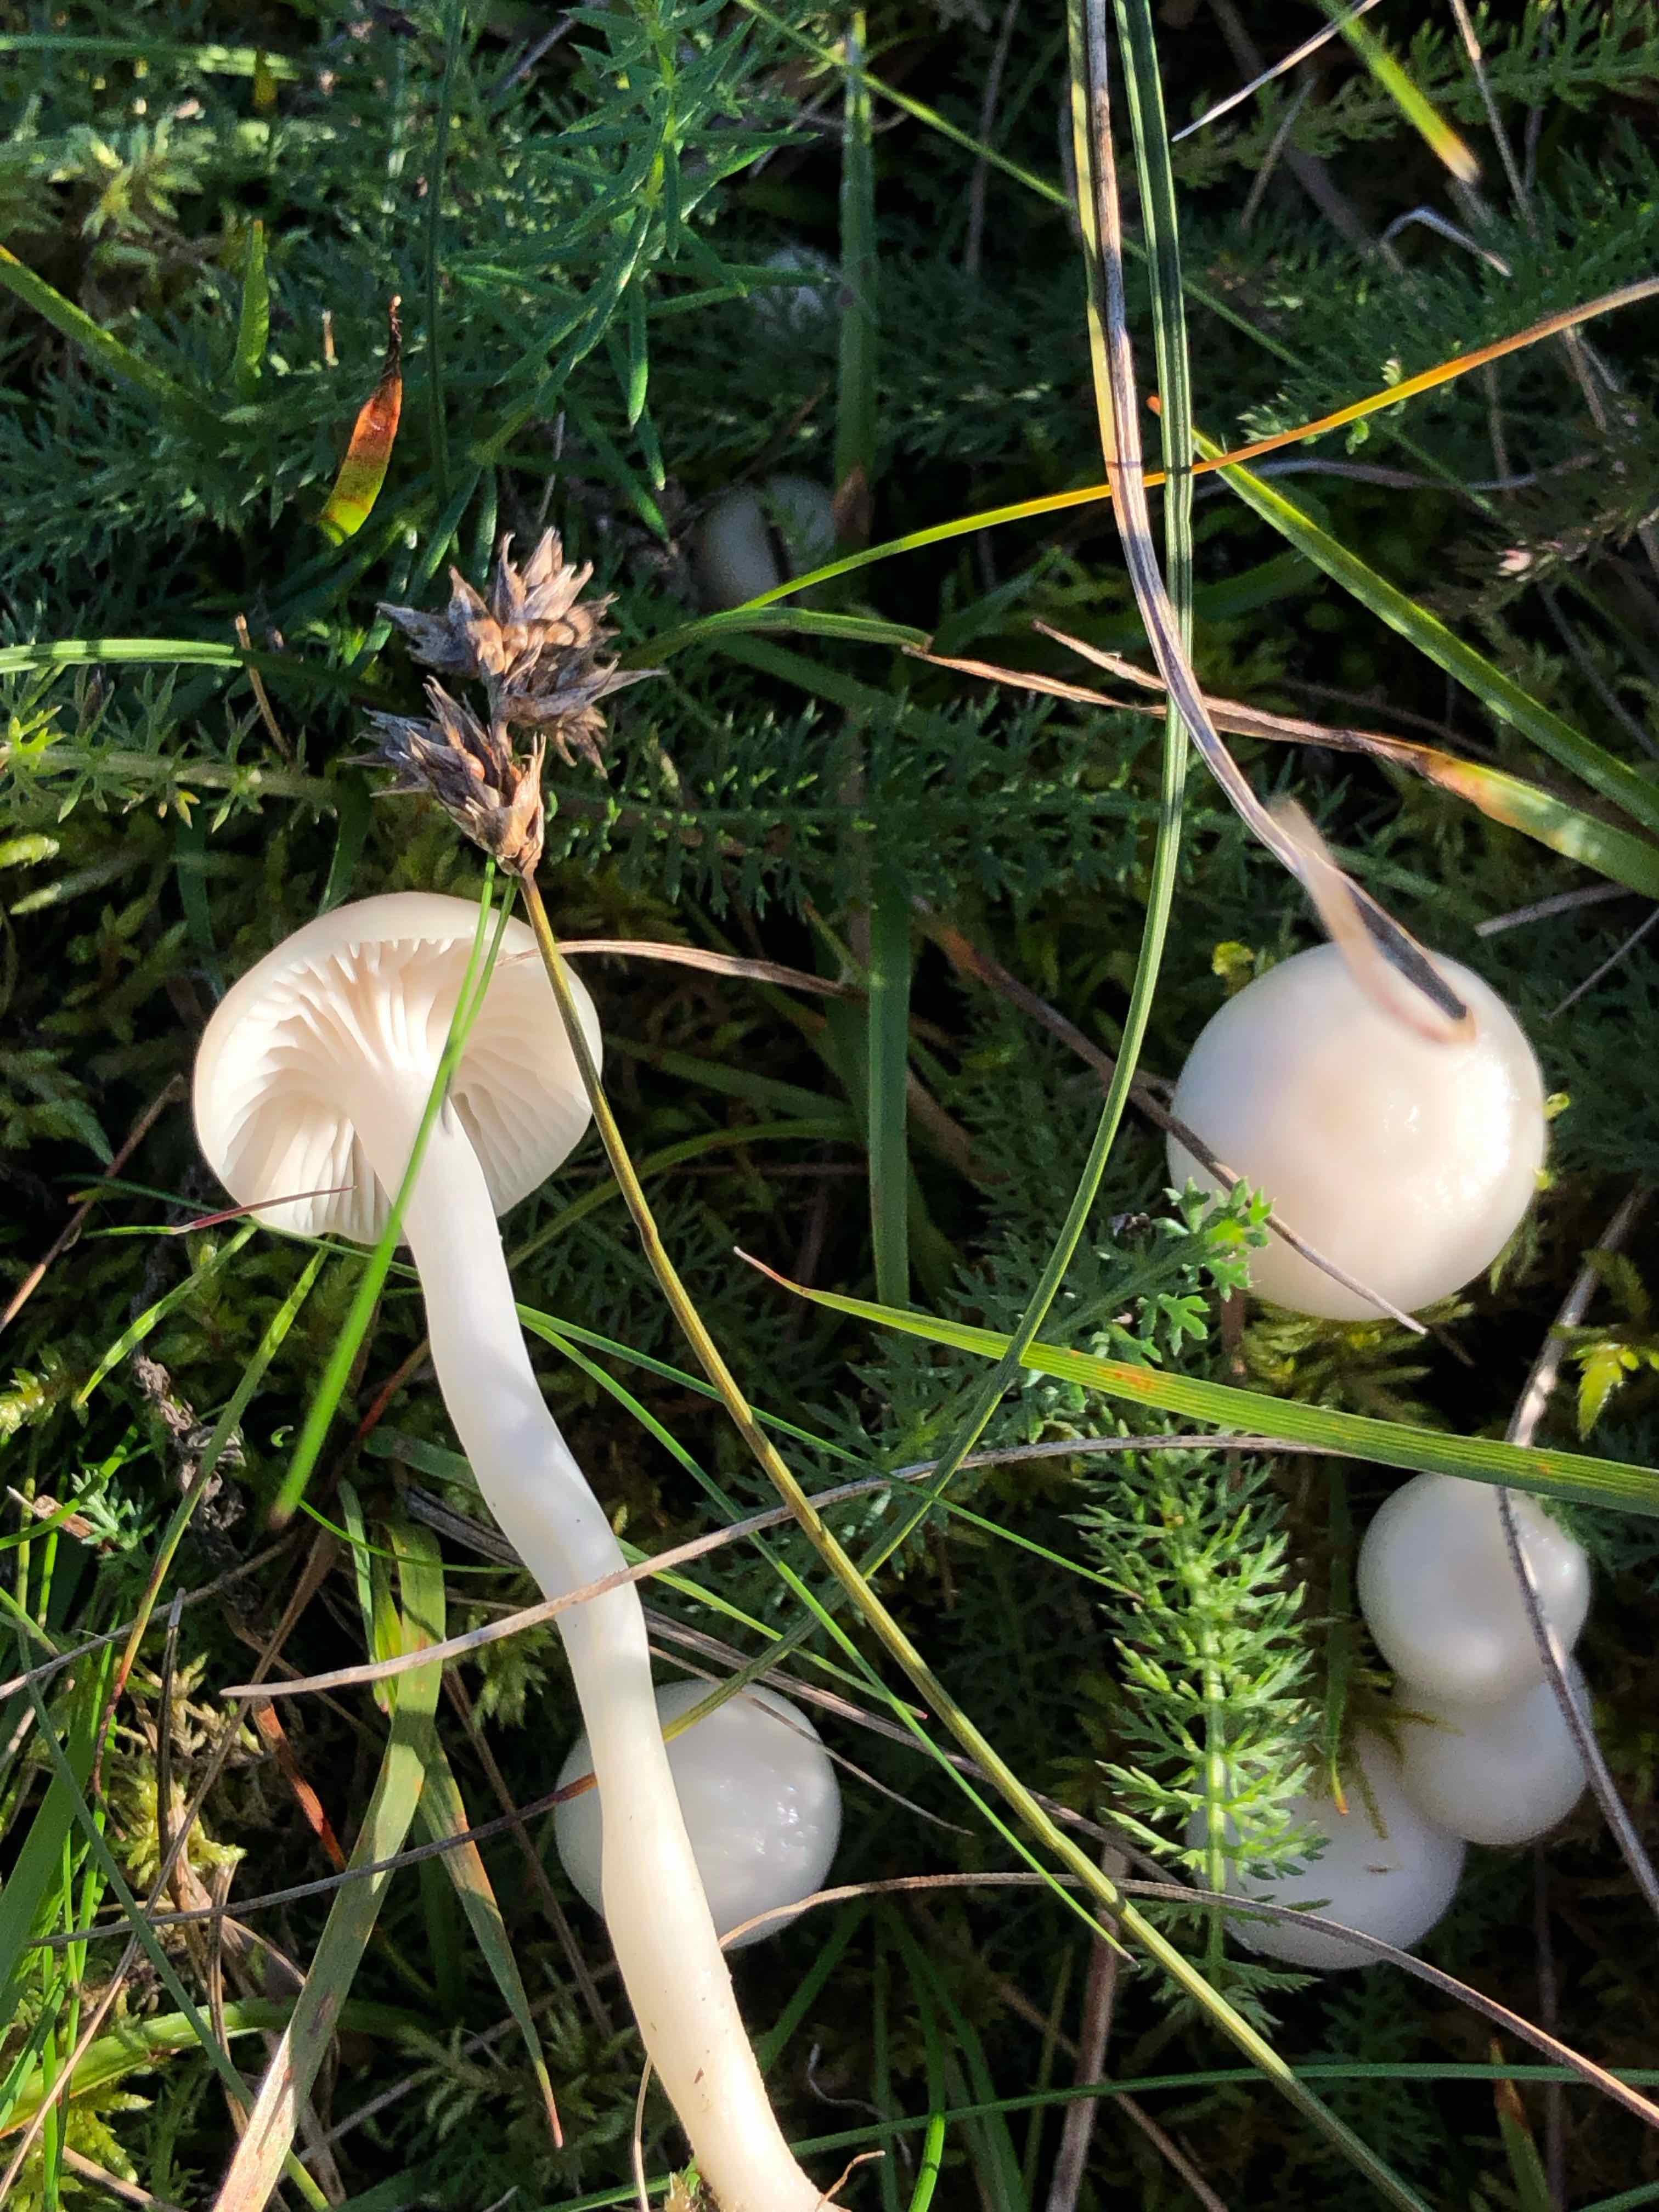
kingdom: Fungi
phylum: Basidiomycota
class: Agaricomycetes
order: Agaricales
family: Hygrophoraceae
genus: Cuphophyllus
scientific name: Cuphophyllus virgineus
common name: snehvid vokshat
